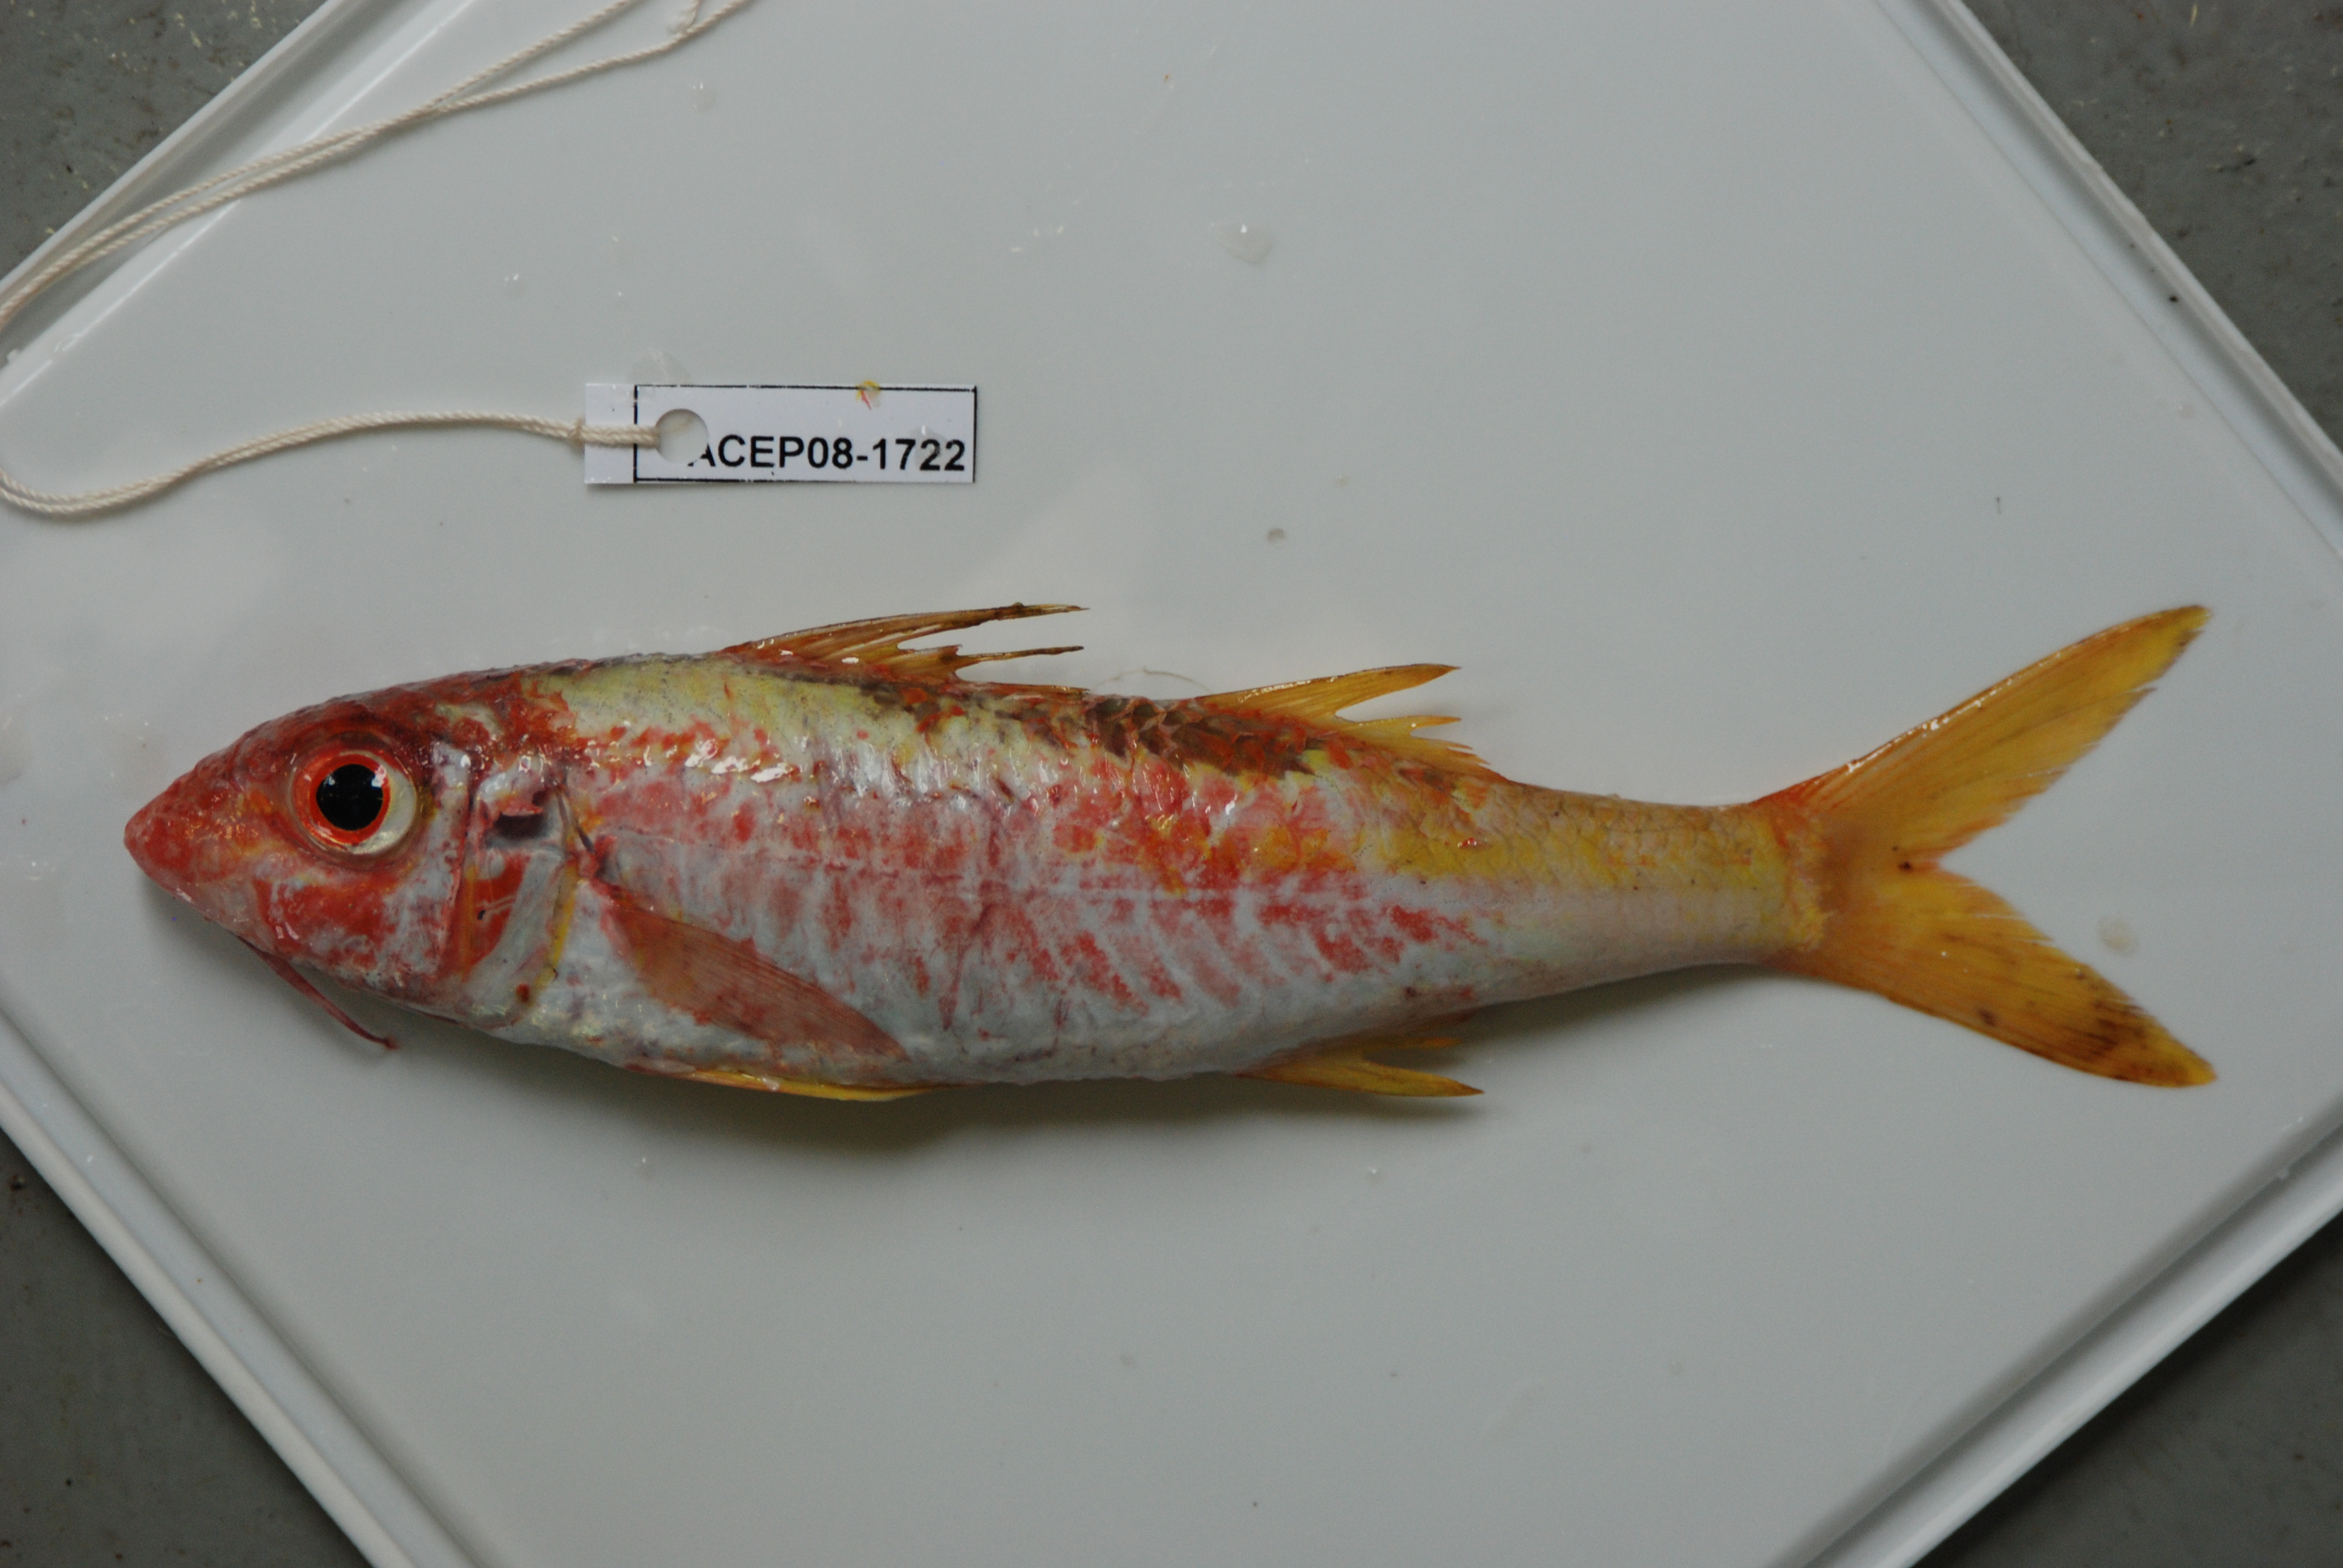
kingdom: Animalia
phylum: Chordata
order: Perciformes
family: Mullidae
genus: Mulloidichthys
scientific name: Mulloidichthys vanicolensis
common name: Yellowfin goatfish
